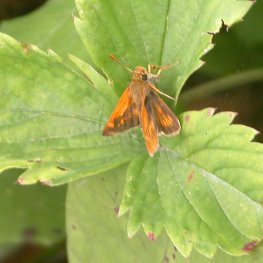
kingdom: Animalia
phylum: Arthropoda
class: Insecta
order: Lepidoptera
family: Hesperiidae
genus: Polites
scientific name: Polites
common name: Long Dash Skipper
